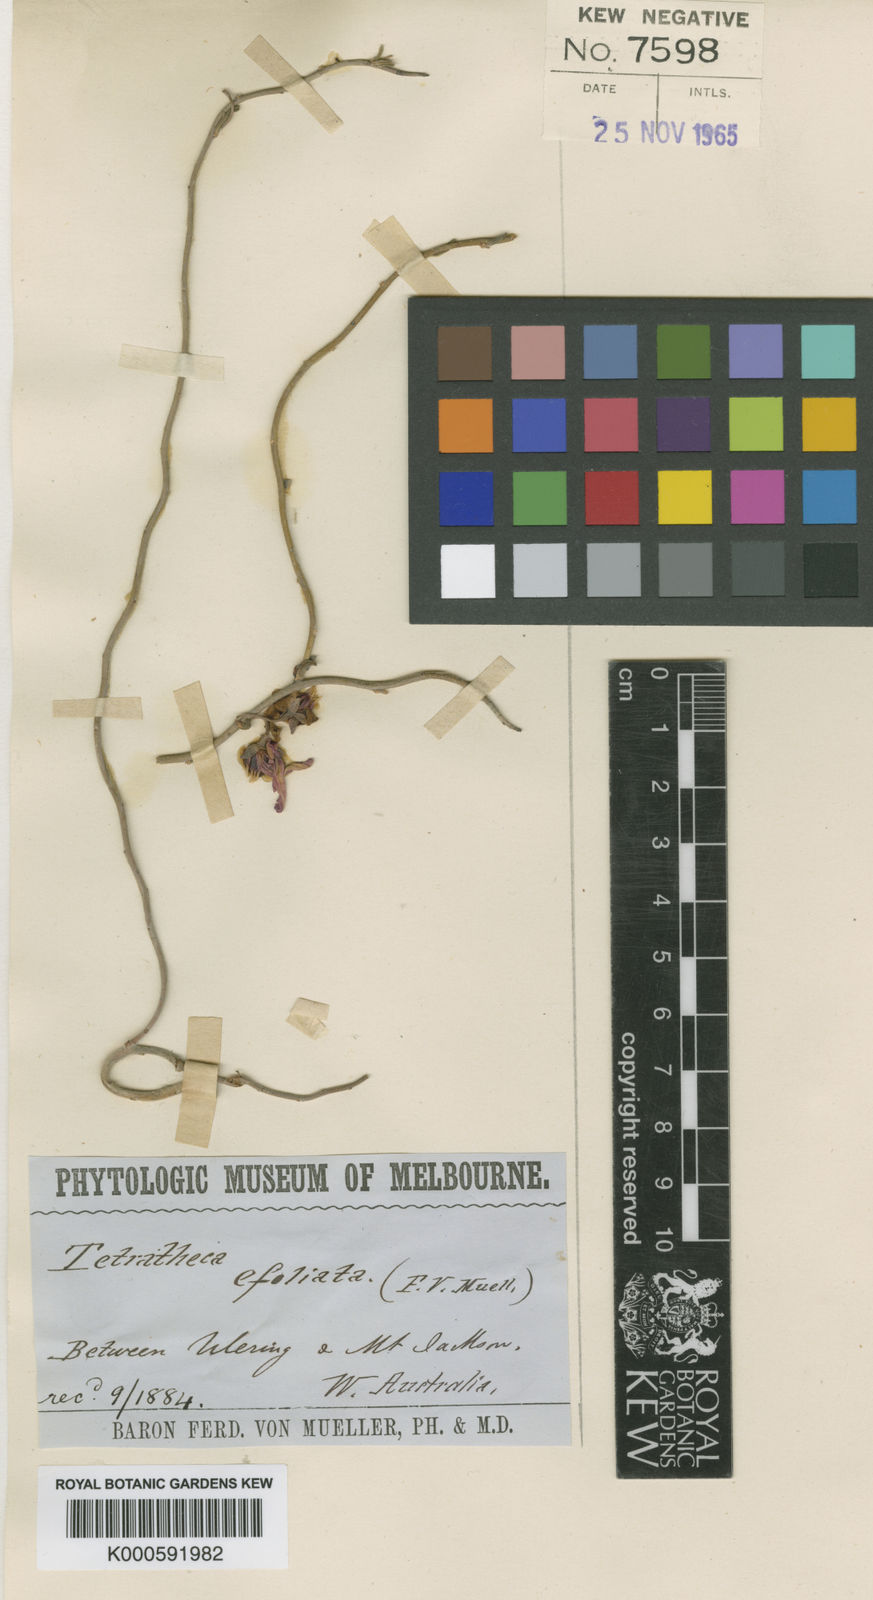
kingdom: Plantae
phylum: Tracheophyta
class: Magnoliopsida
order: Oxalidales
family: Elaeocarpaceae
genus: Tetratheca
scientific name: Tetratheca efoliata
